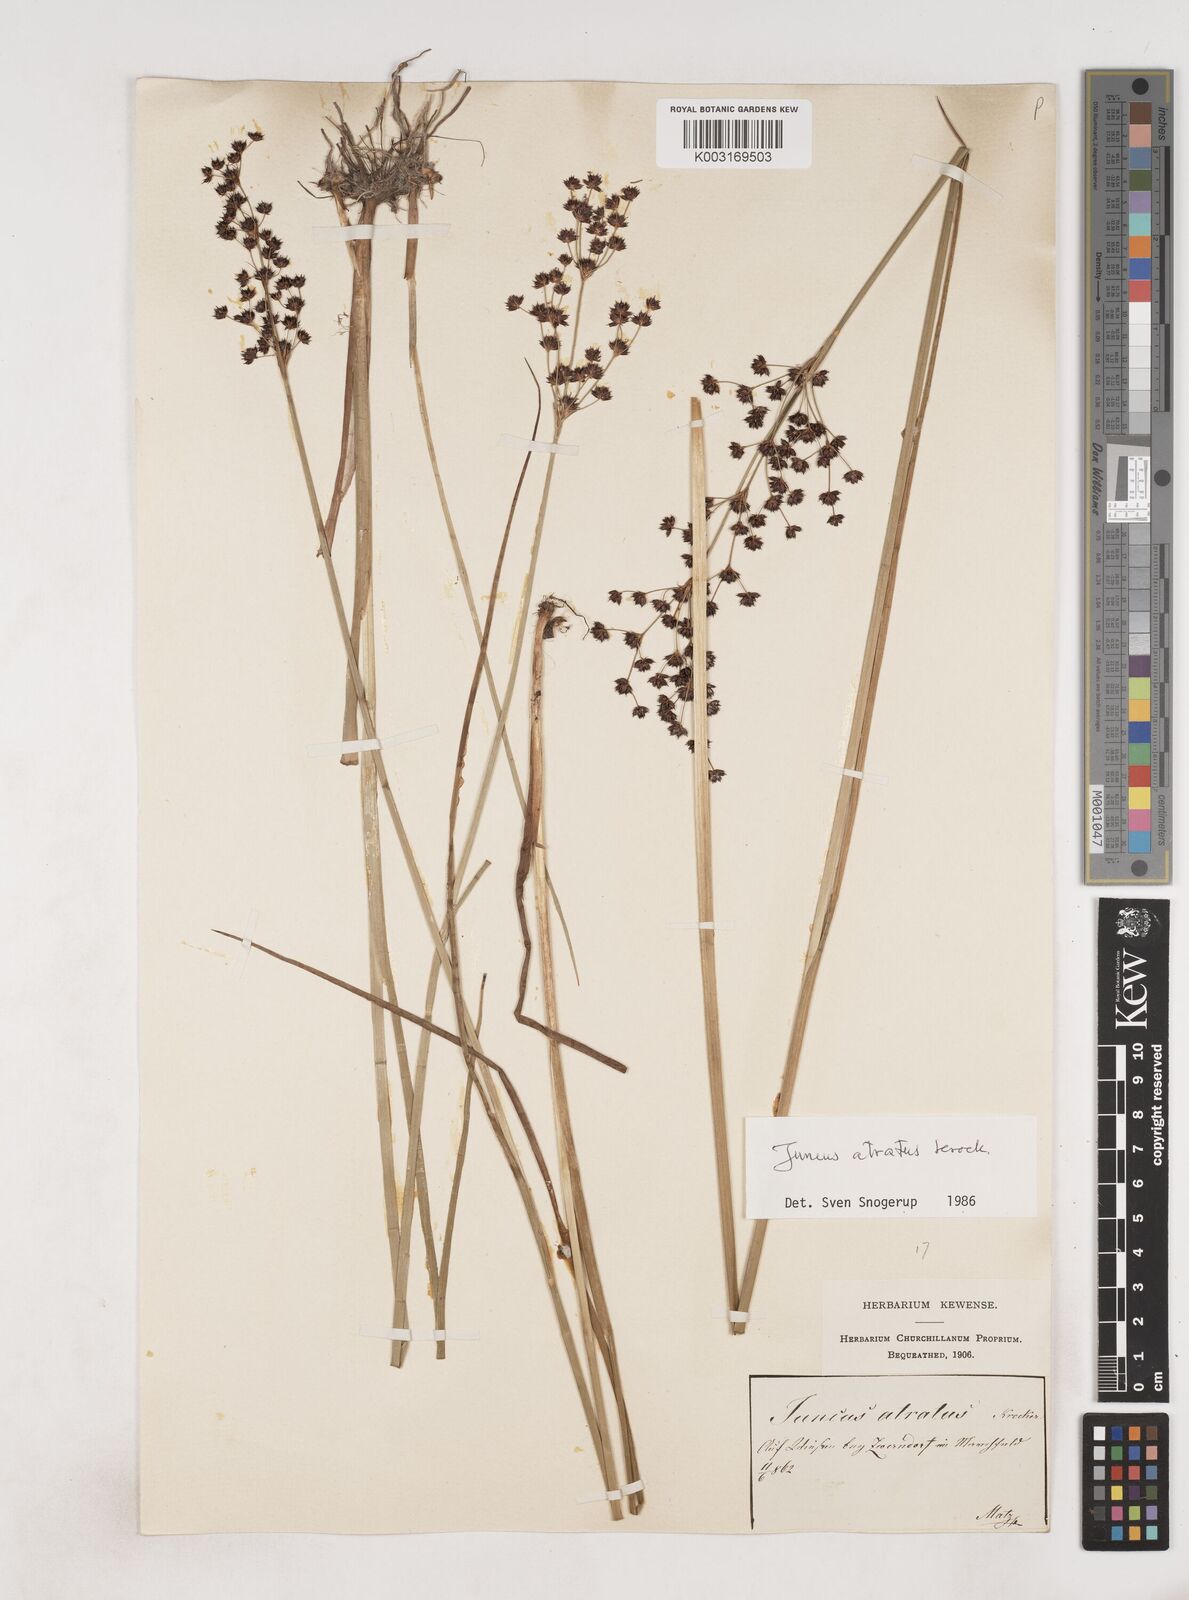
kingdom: Plantae
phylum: Tracheophyta
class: Liliopsida
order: Poales
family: Juncaceae
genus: Juncus
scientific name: Juncus atratus
